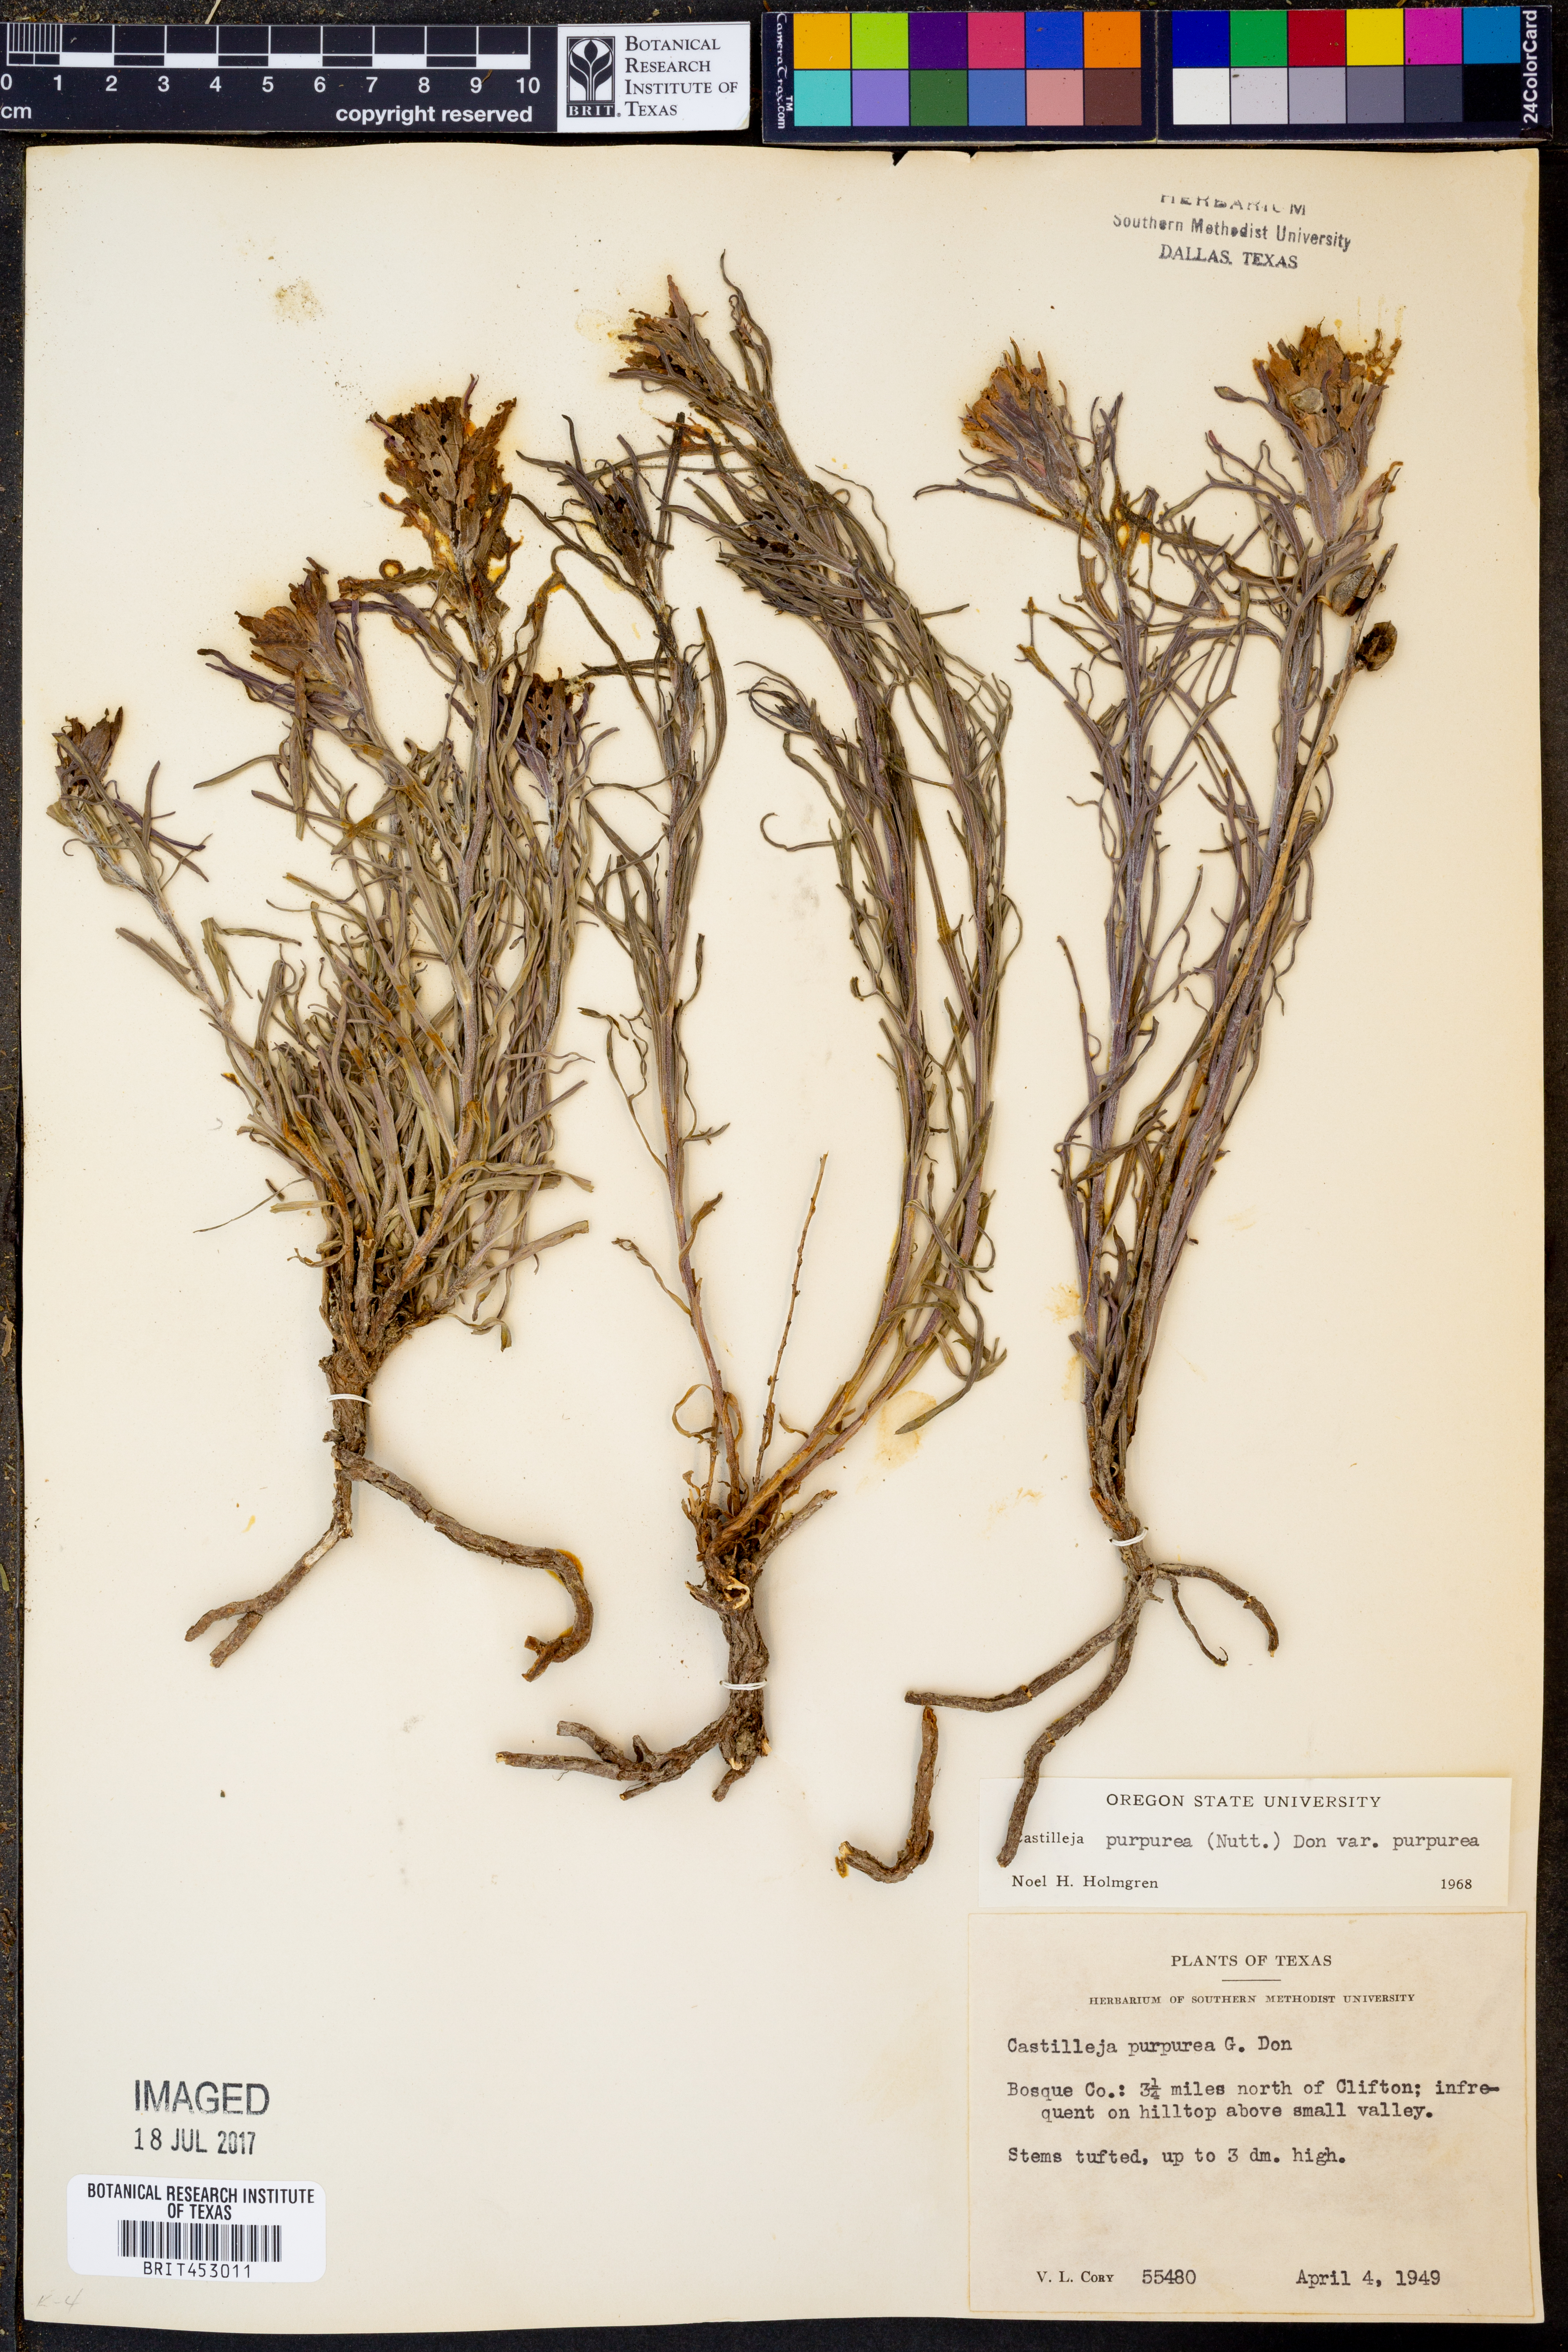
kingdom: Plantae
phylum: Tracheophyta
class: Magnoliopsida
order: Lamiales
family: Orobanchaceae
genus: Castilleja
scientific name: Castilleja purpurea
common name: Plains paintbrush
